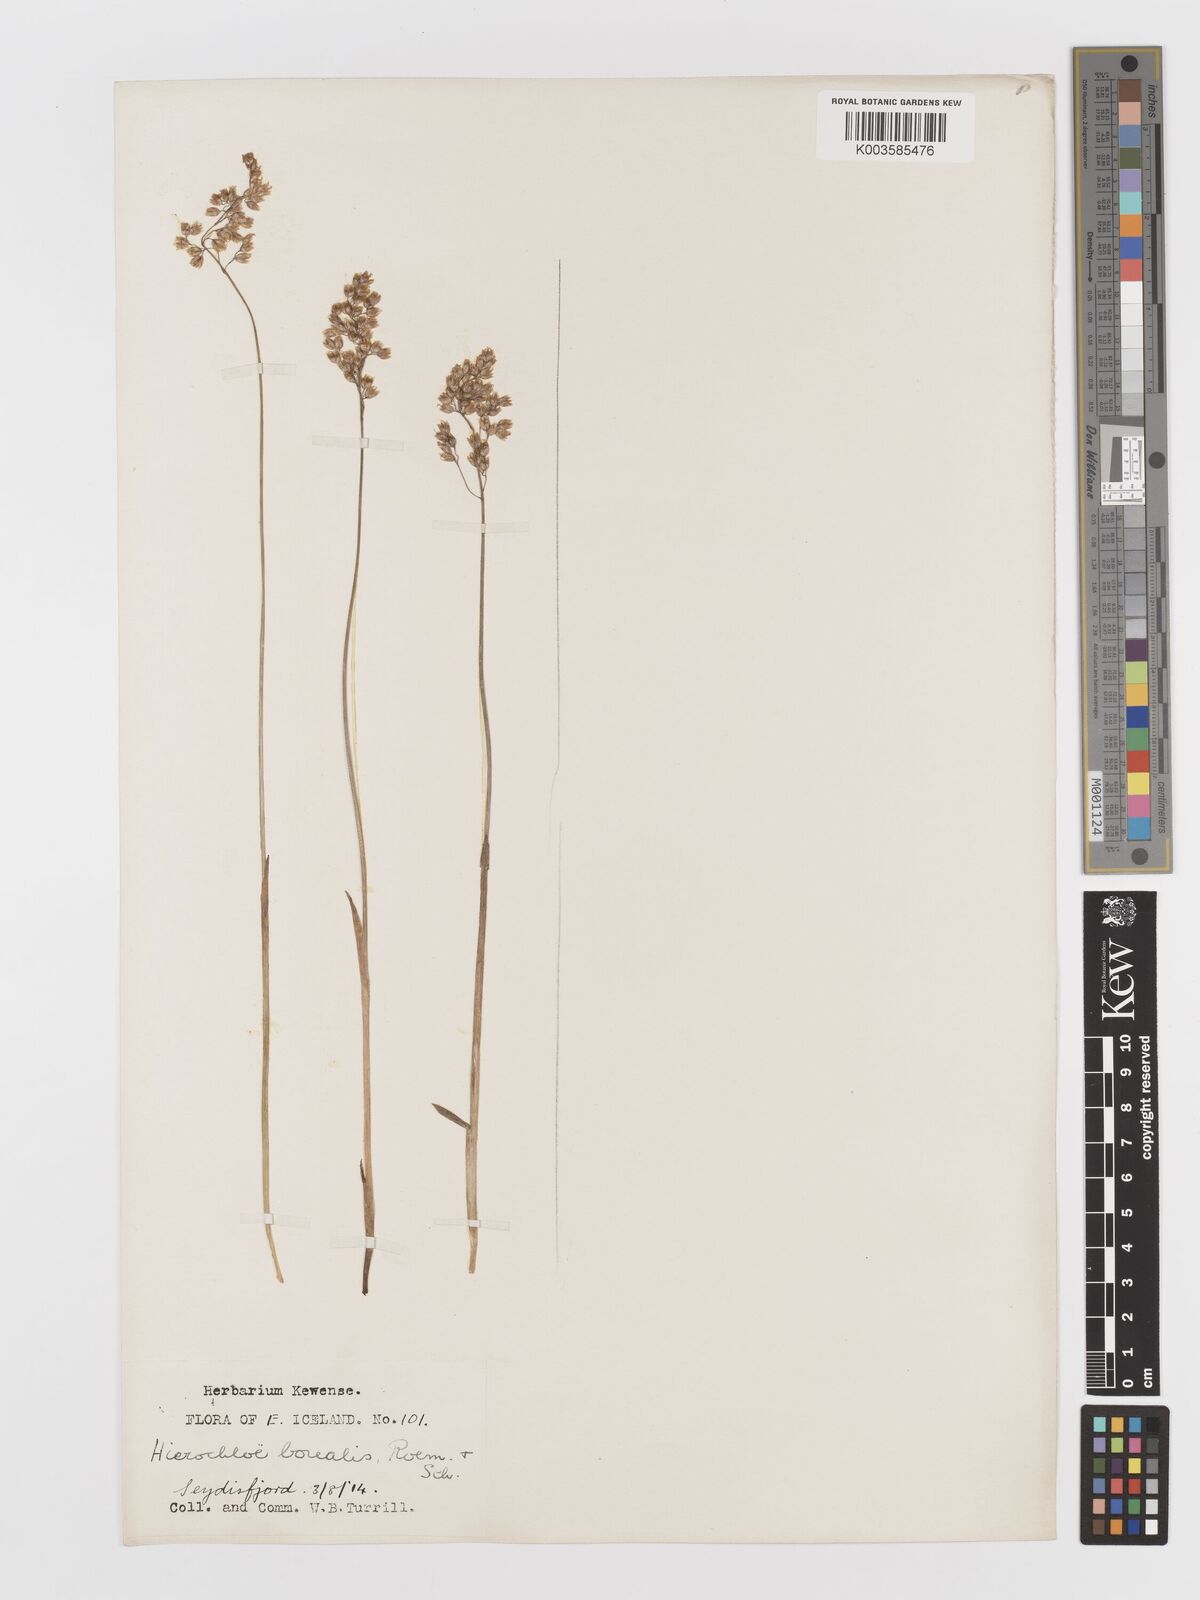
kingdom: Plantae
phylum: Tracheophyta
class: Liliopsida
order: Poales
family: Poaceae
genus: Anthoxanthum
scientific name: Anthoxanthum nitens
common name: Holy grass
